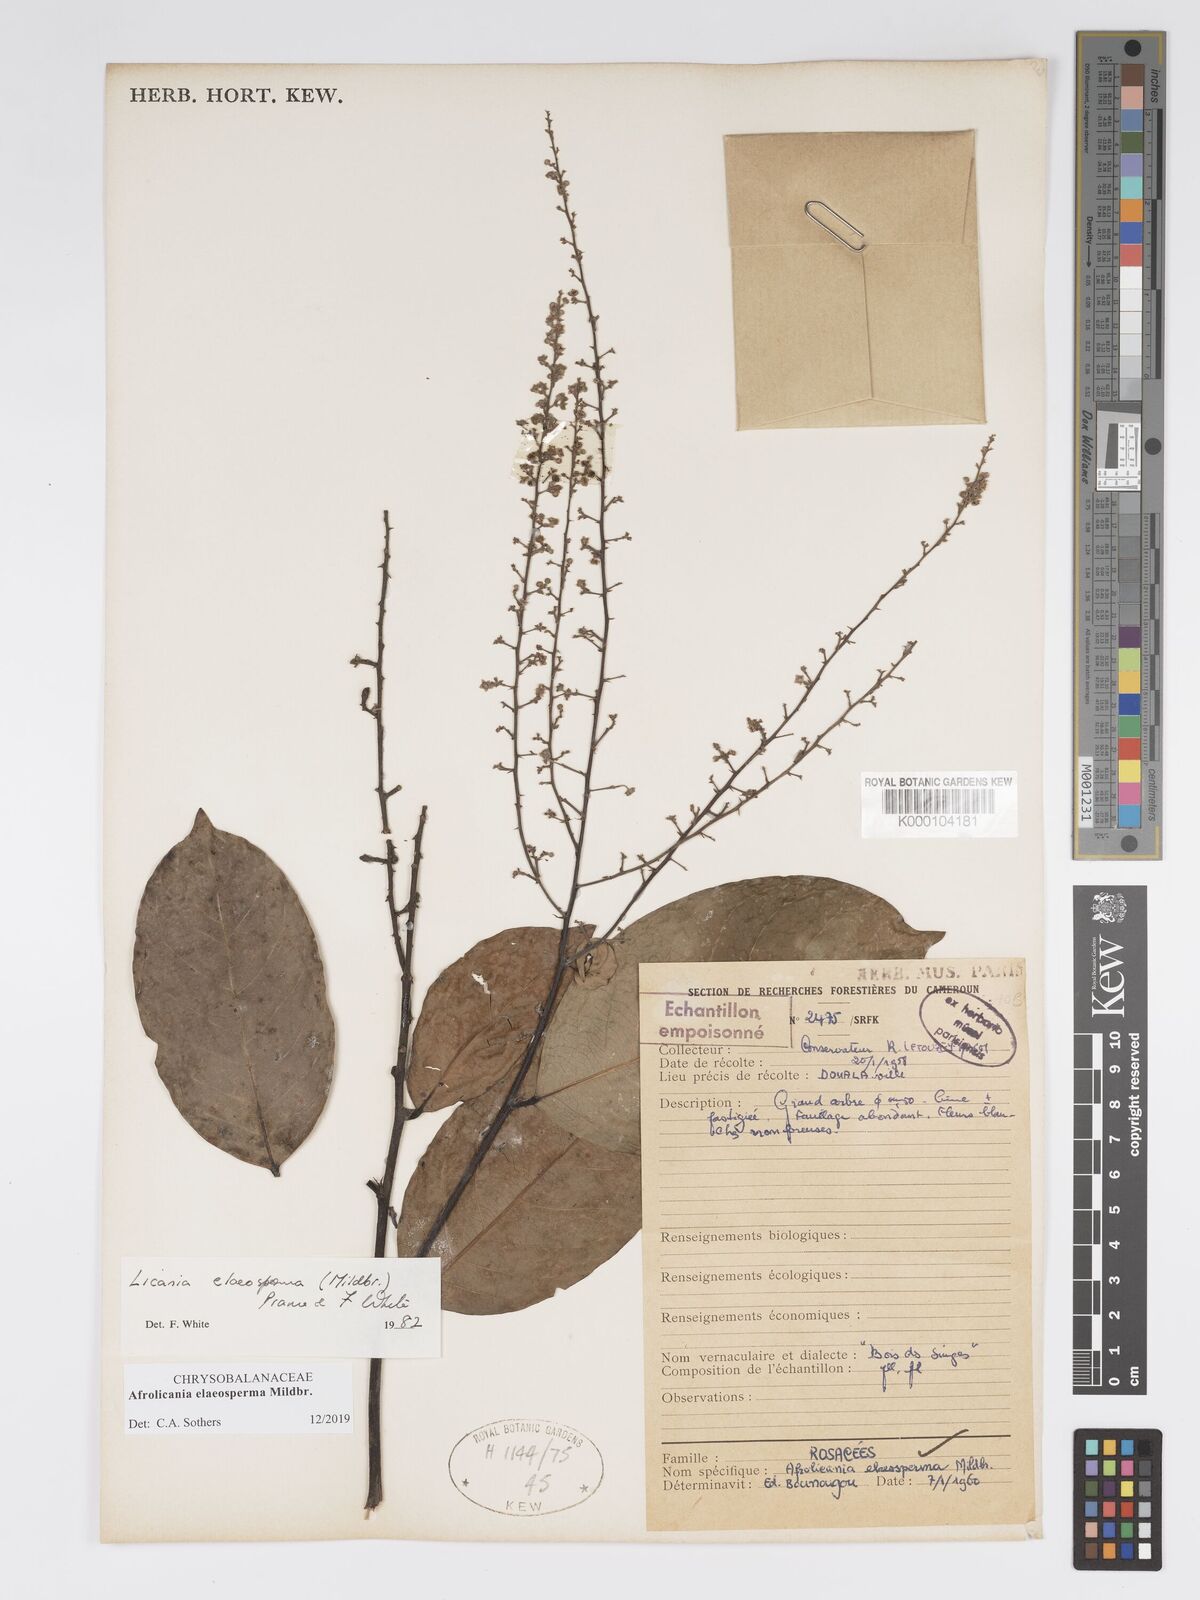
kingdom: Plantae
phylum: Tracheophyta
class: Magnoliopsida
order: Malpighiales
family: Chrysobalanaceae
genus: Afrolicania
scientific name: Afrolicania elaeosperma
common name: Nikko
